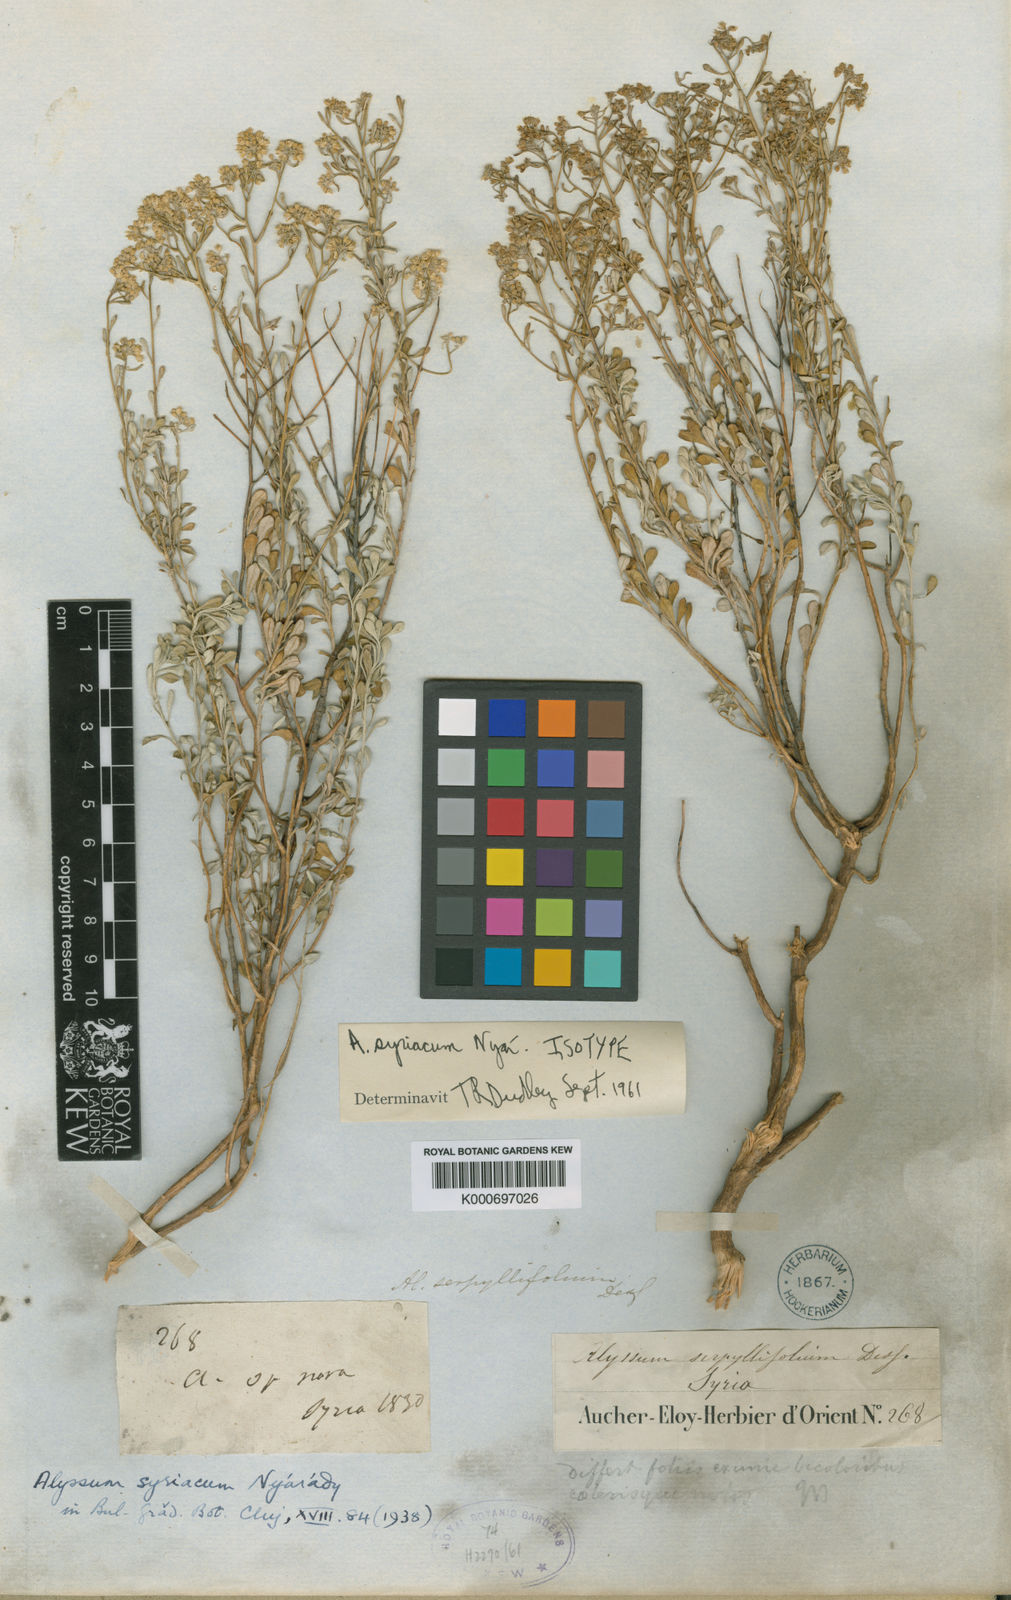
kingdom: Plantae
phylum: Tracheophyta
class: Magnoliopsida
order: Brassicales
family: Brassicaceae
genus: Odontarrhena
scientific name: Odontarrhena syriaca
